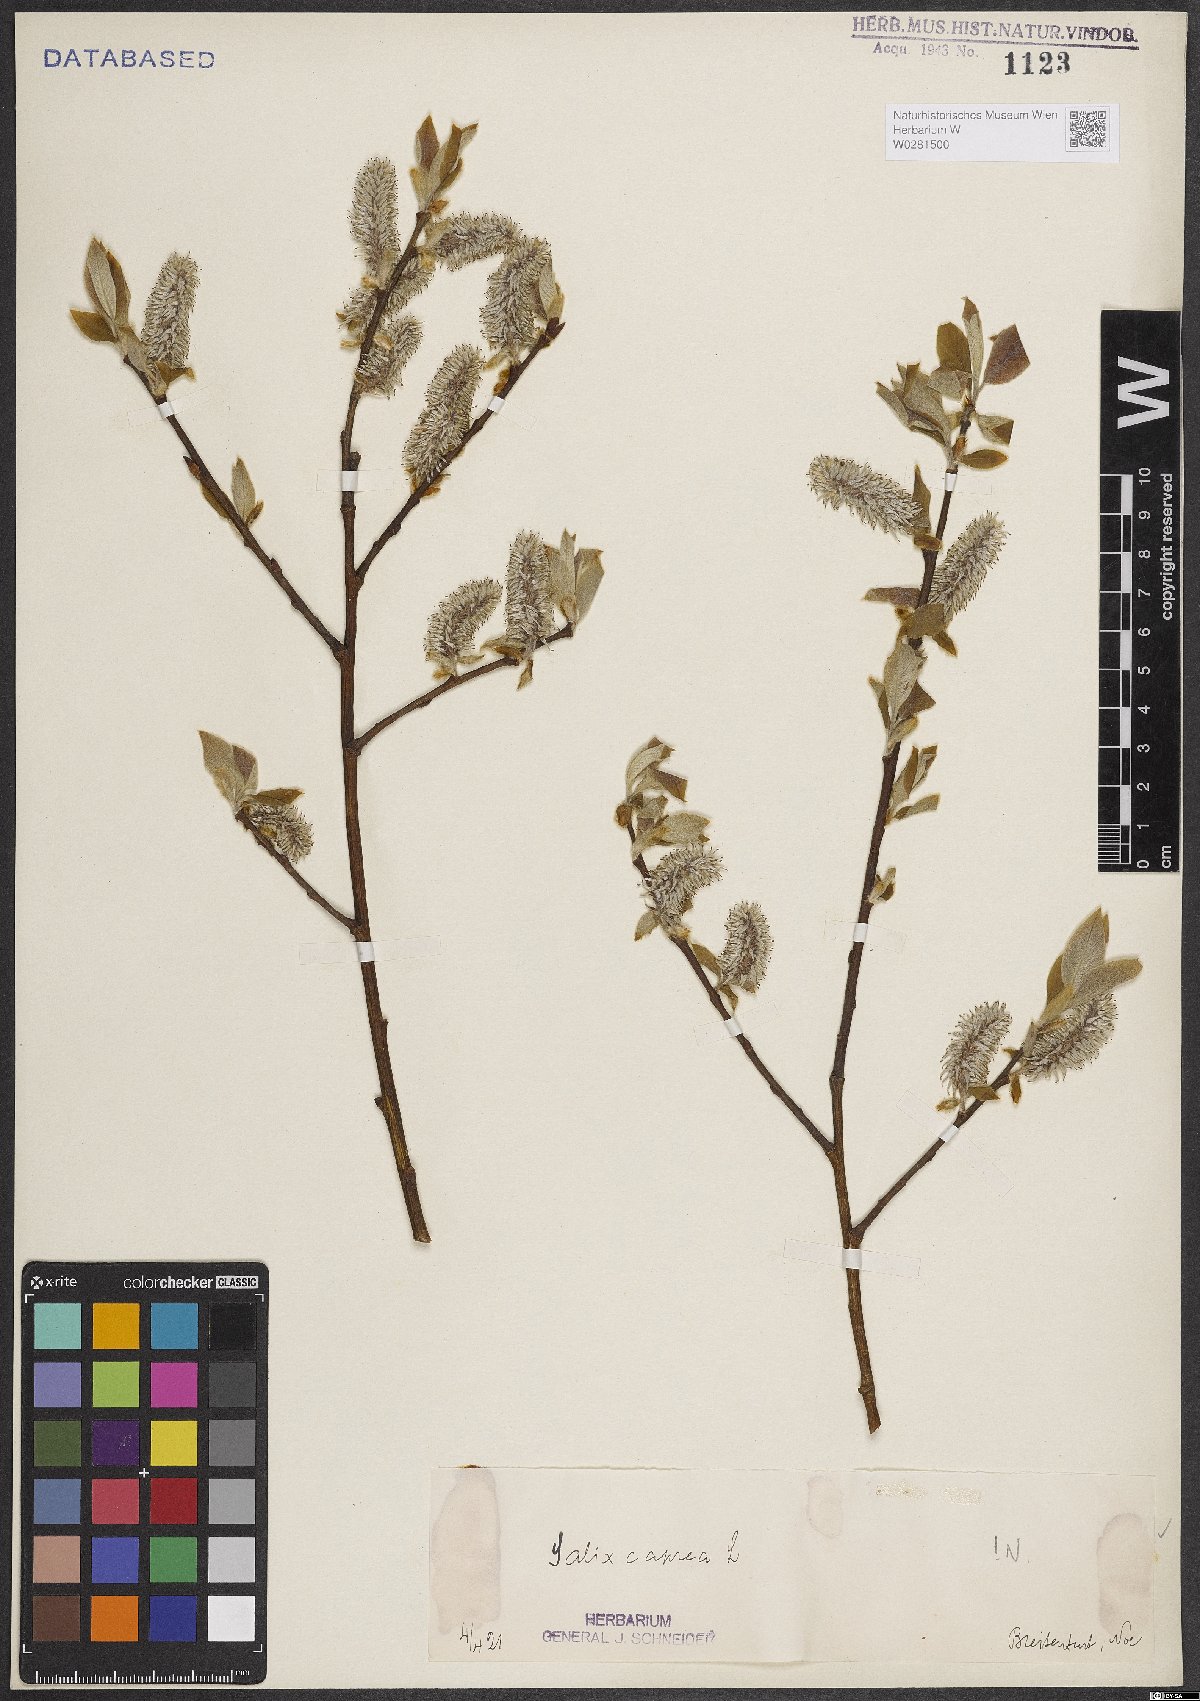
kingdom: Plantae
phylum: Tracheophyta
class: Magnoliopsida
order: Malpighiales
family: Salicaceae
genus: Salix
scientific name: Salix caprea
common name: Goat willow
